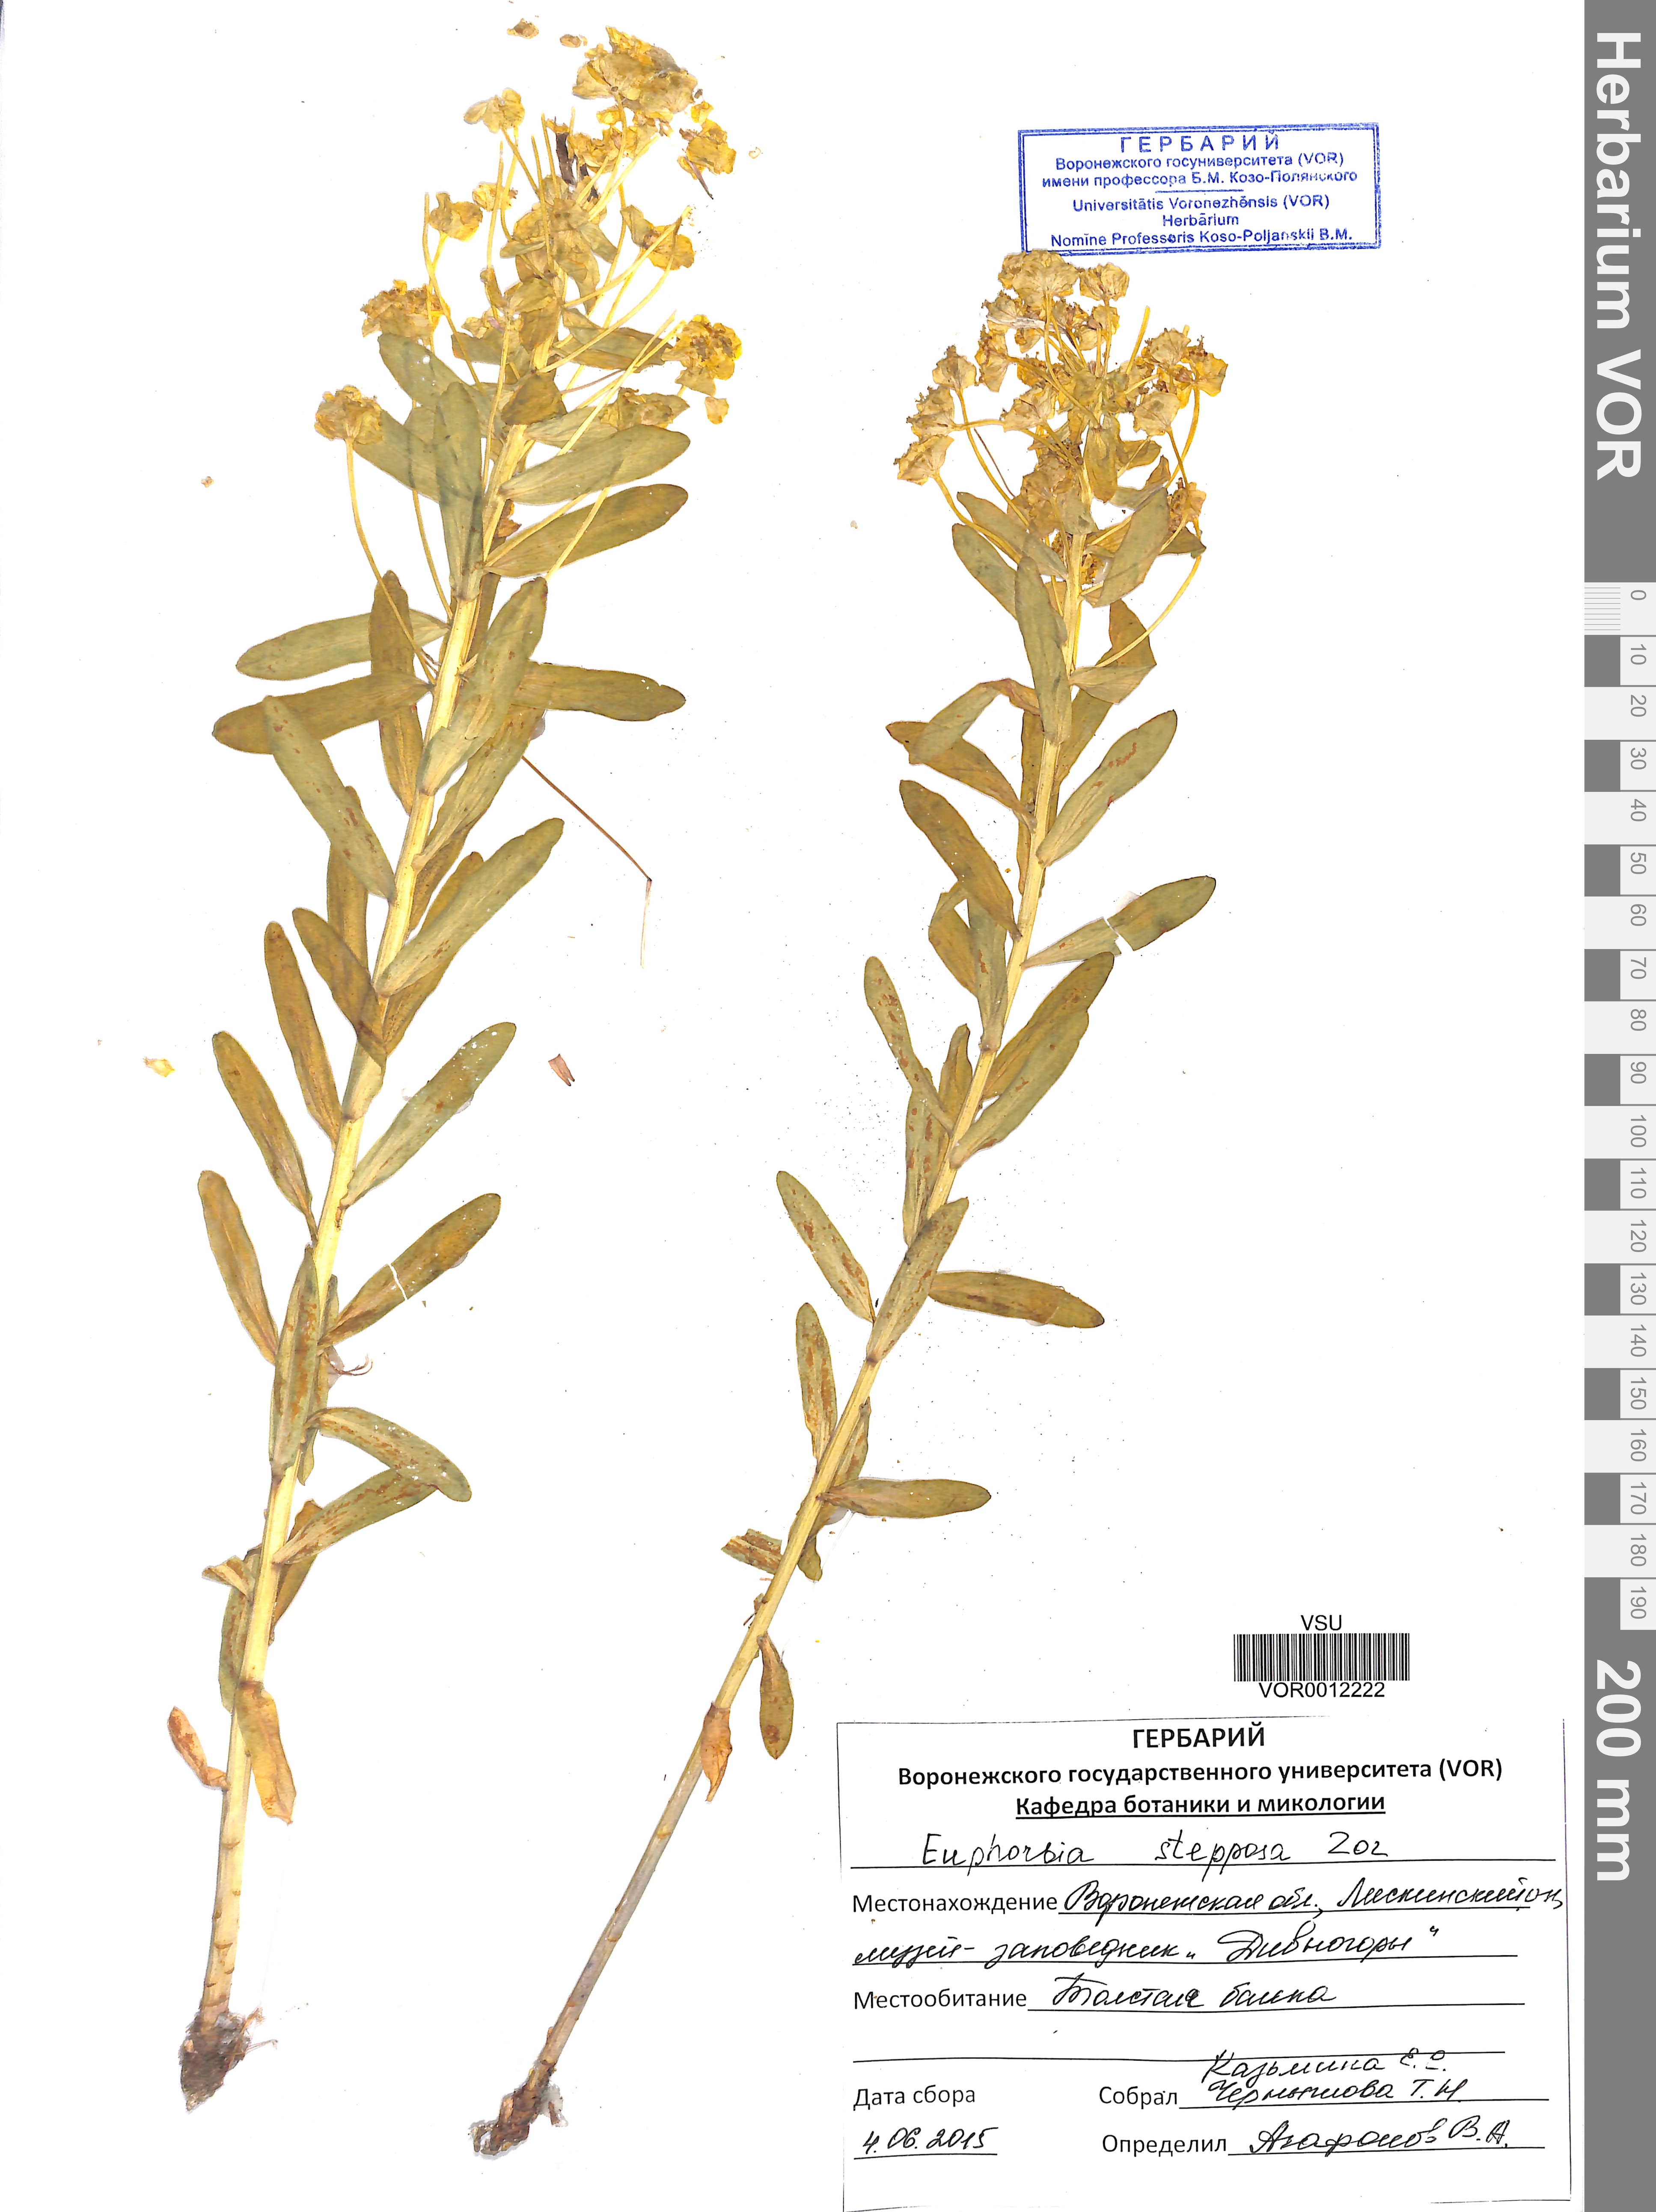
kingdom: Plantae
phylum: Tracheophyta
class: Magnoliopsida
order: Malpighiales
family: Euphorbiaceae
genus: Euphorbia
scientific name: Euphorbia stepposa
